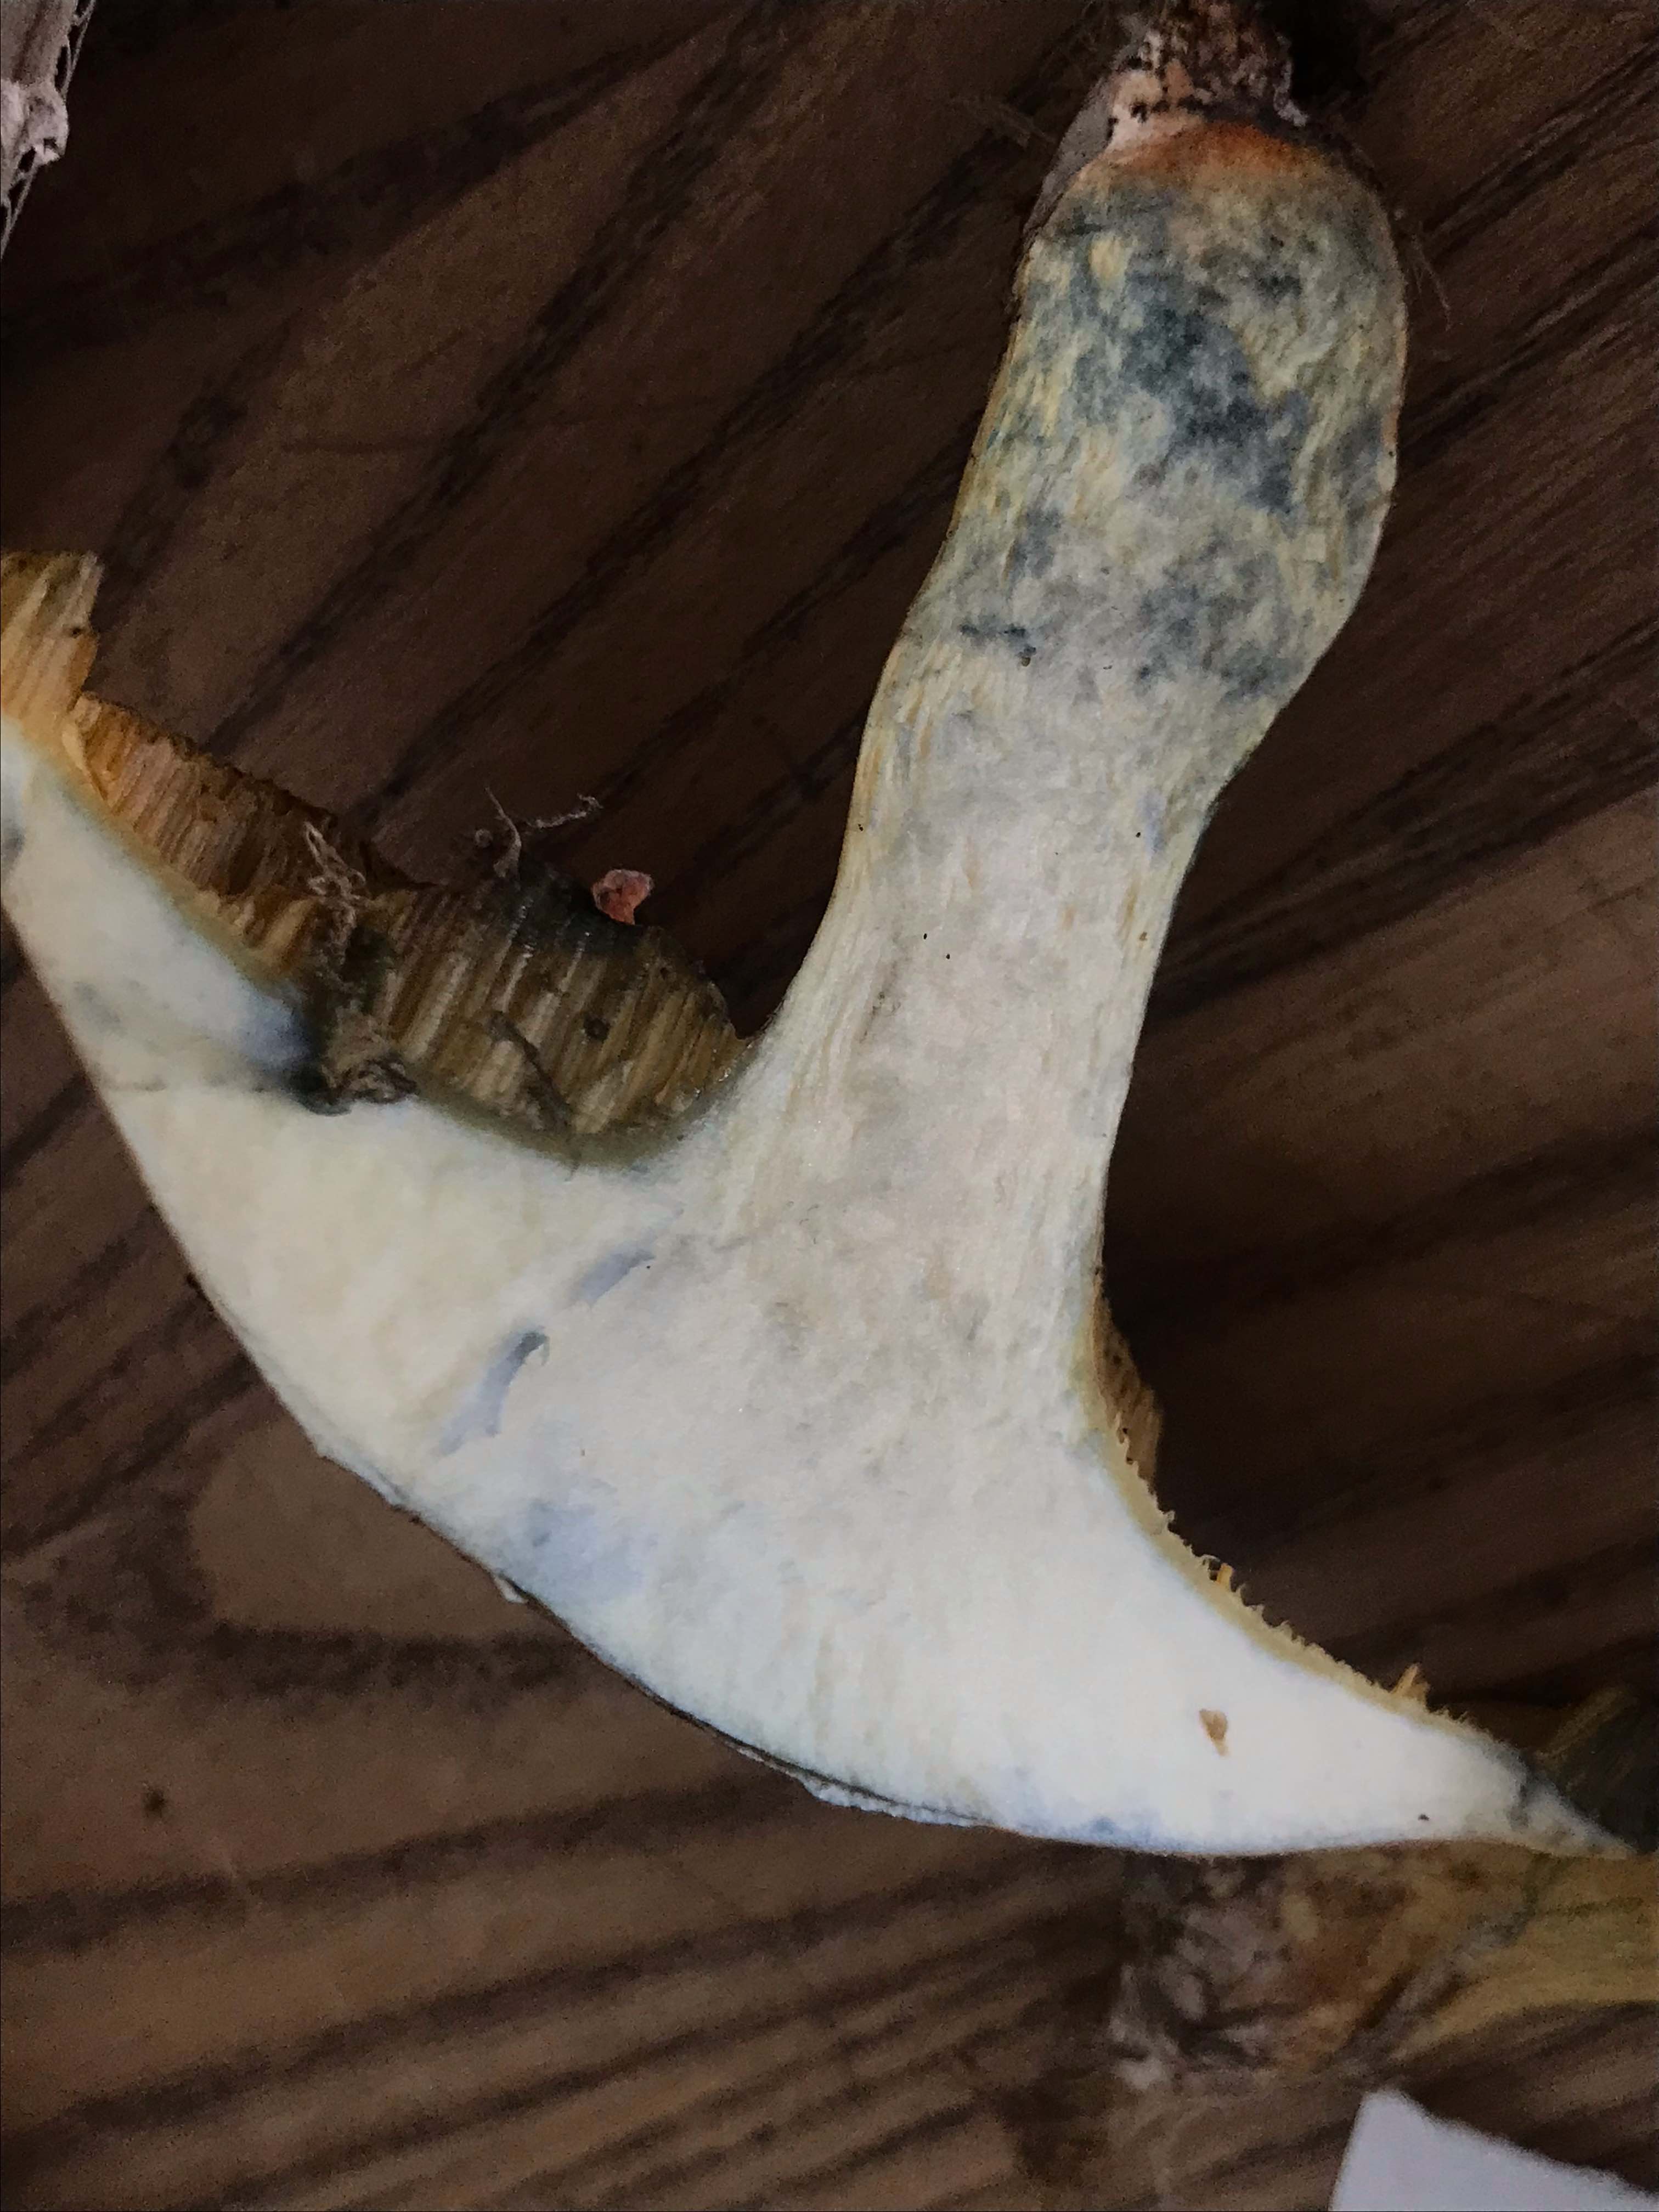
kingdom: Fungi
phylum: Basidiomycota
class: Agaricomycetes
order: Boletales
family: Suillaceae
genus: Suillus
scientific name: Suillus variegatus
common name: broget slimrørhat
